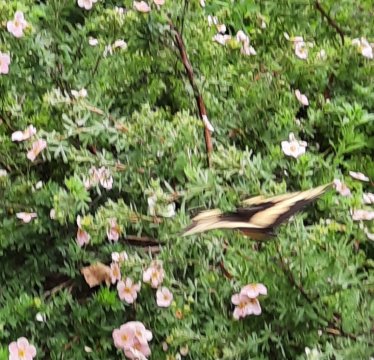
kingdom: Animalia
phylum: Arthropoda
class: Insecta
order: Lepidoptera
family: Papilionidae
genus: Papilio
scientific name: Papilio cresphontes
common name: Eastern Giant Swallowtail
